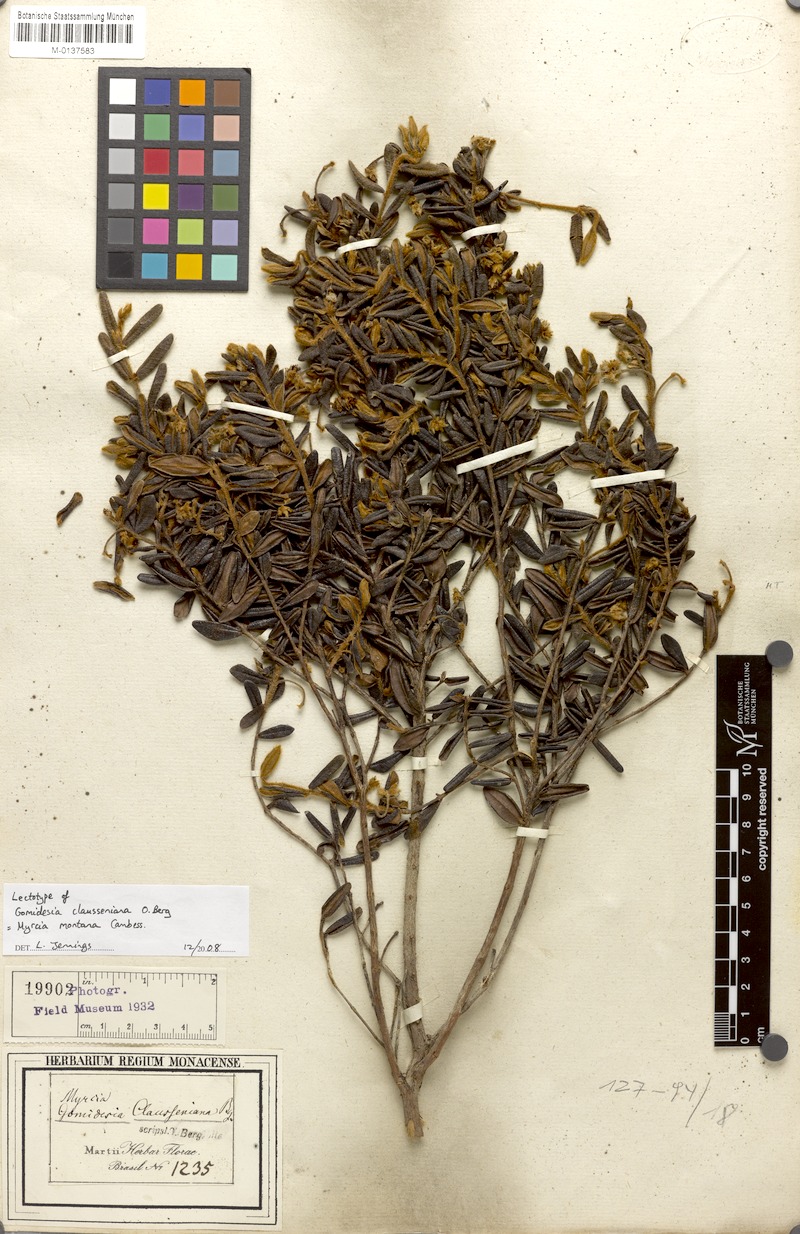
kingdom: Plantae
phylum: Tracheophyta
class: Magnoliopsida
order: Myrtales
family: Myrtaceae
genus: Myrcia
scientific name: Myrcia ouropretoensis
